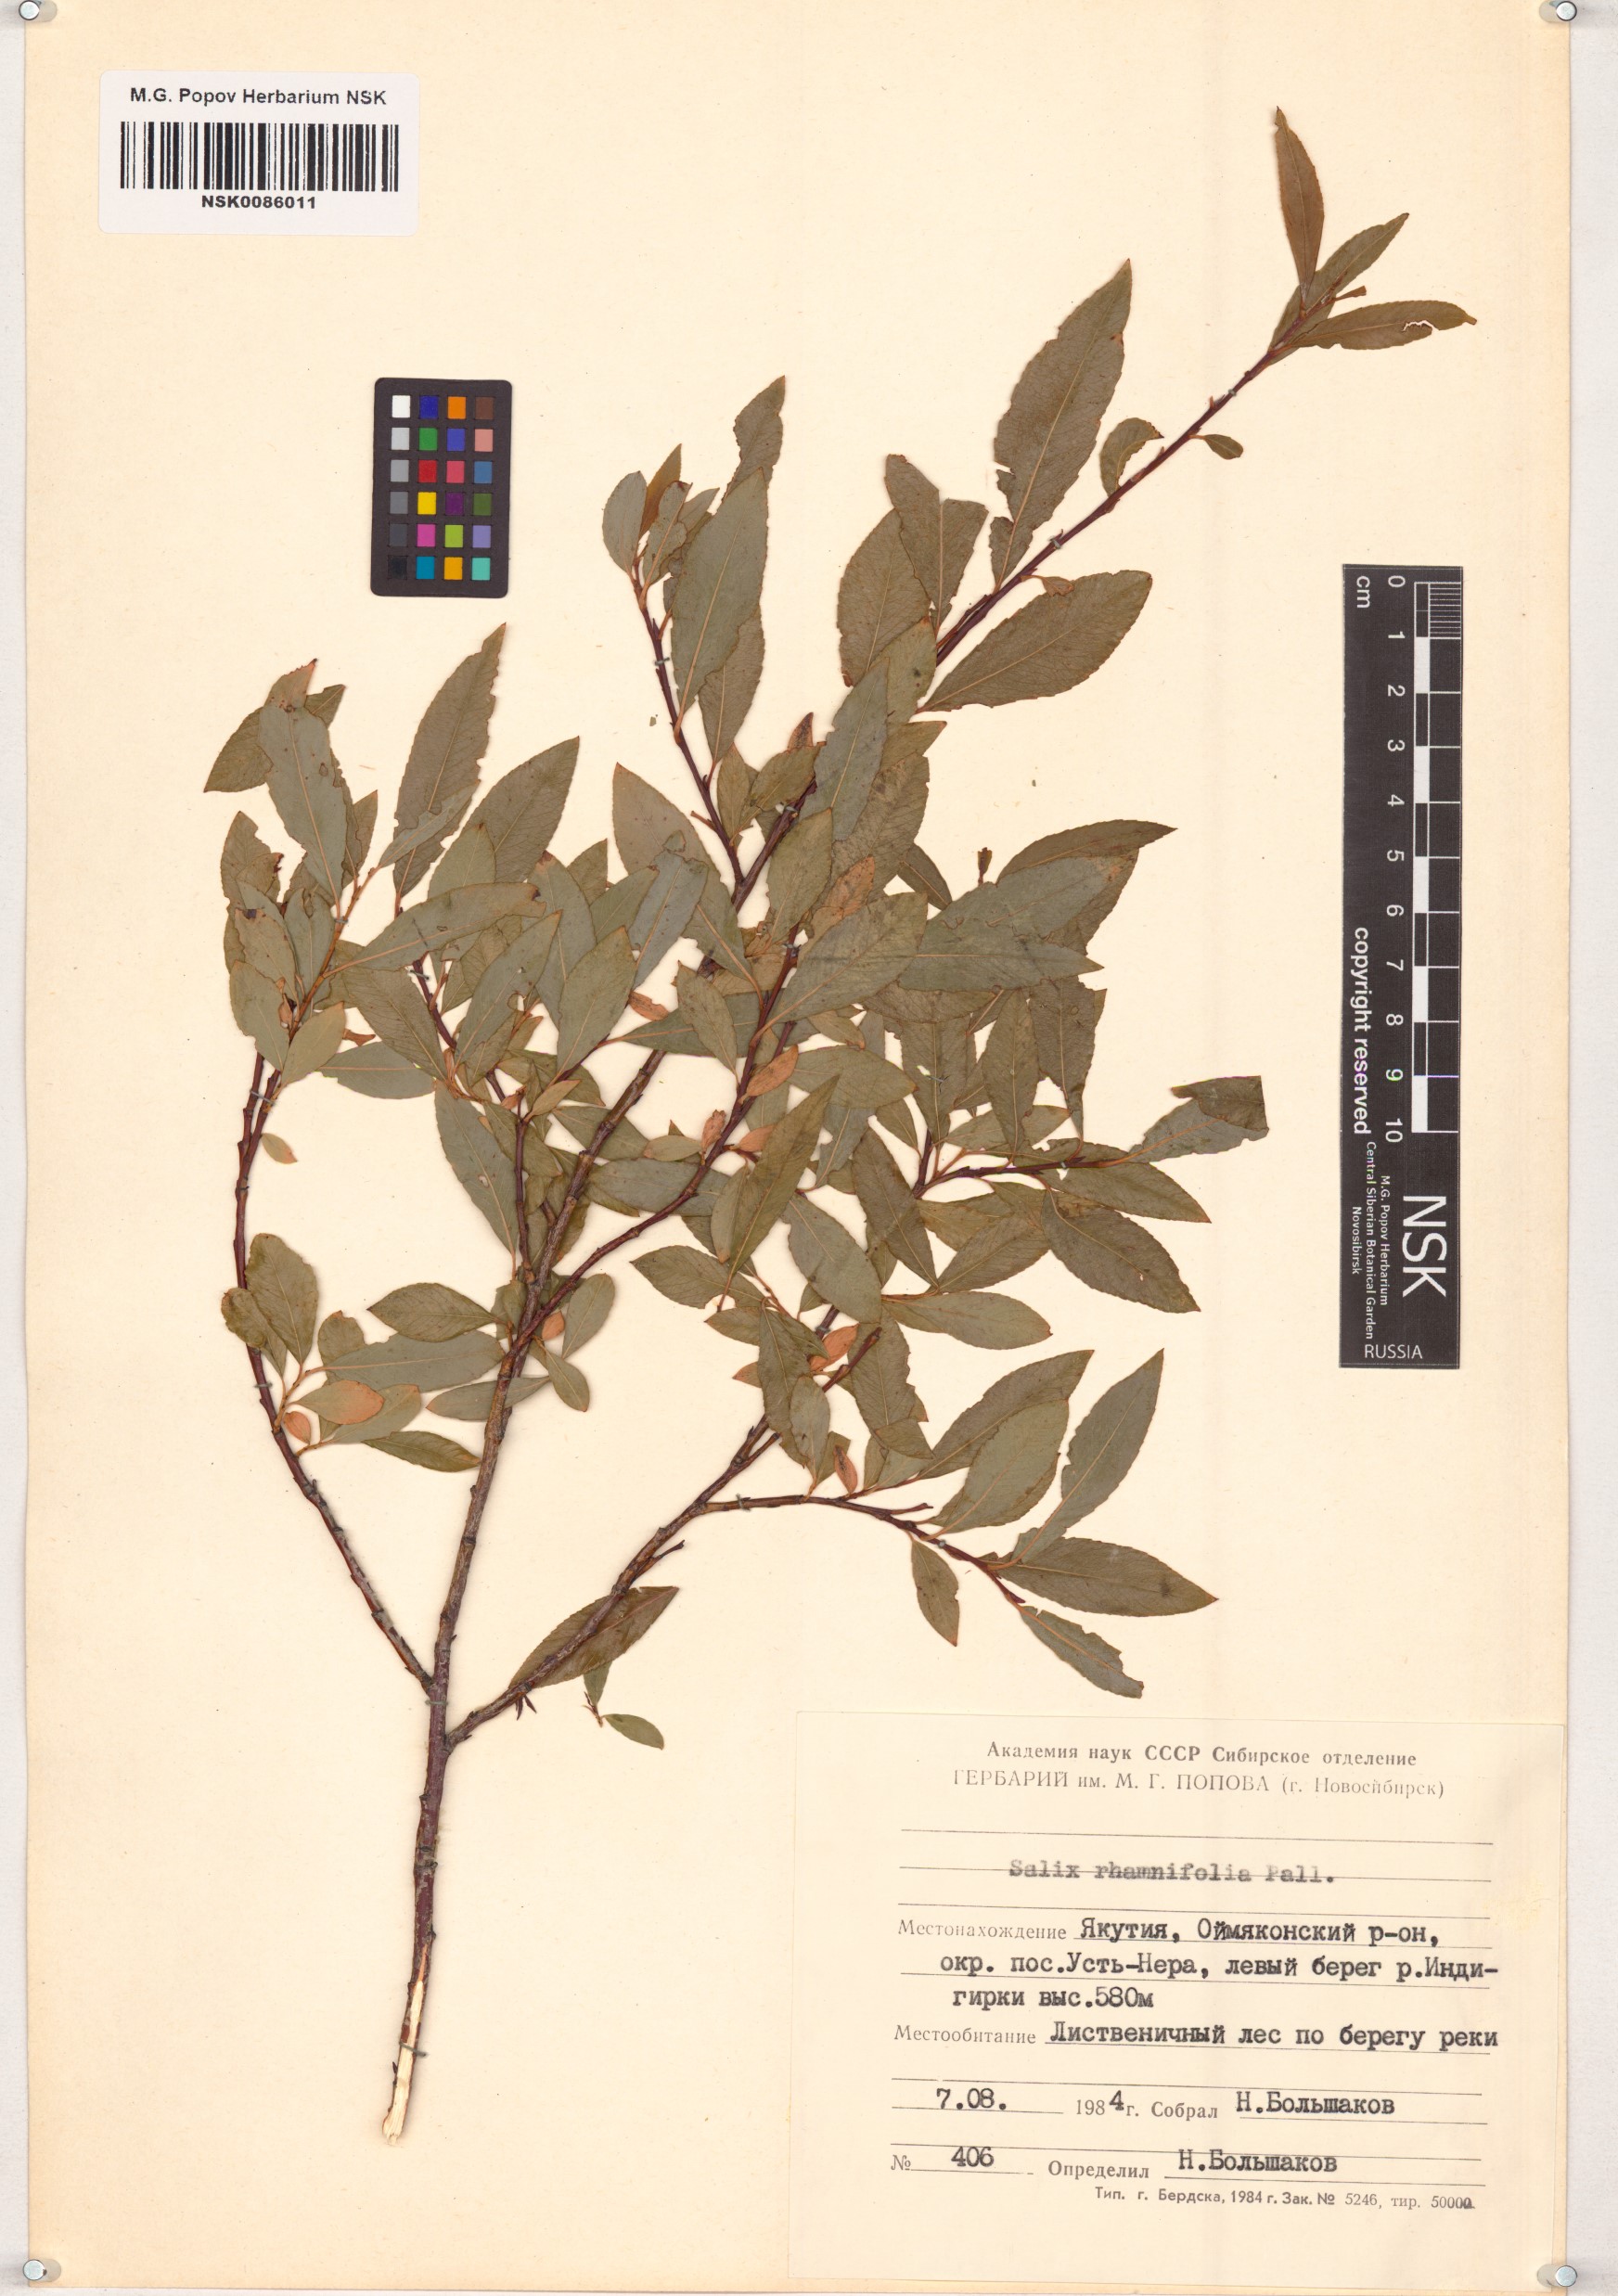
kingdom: Plantae
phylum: Tracheophyta
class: Magnoliopsida
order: Malpighiales
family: Salicaceae
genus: Salix
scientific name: Salix rhamnifolia
